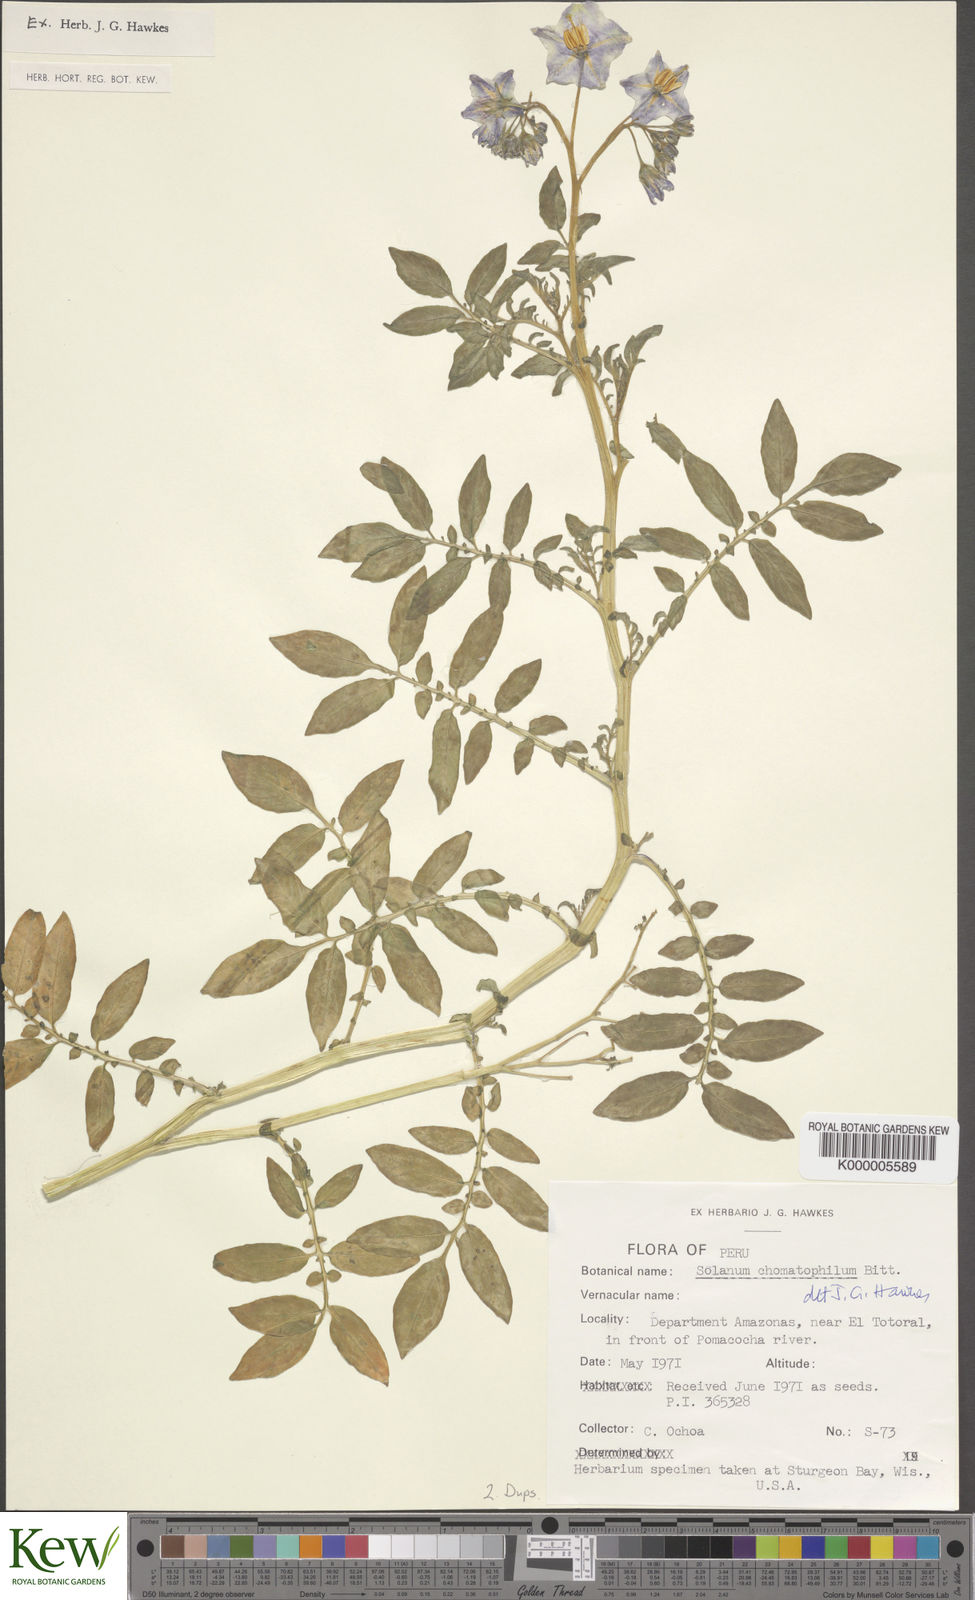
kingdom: Plantae
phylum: Tracheophyta
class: Magnoliopsida
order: Solanales
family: Solanaceae
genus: Solanum
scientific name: Solanum chomatophilum
